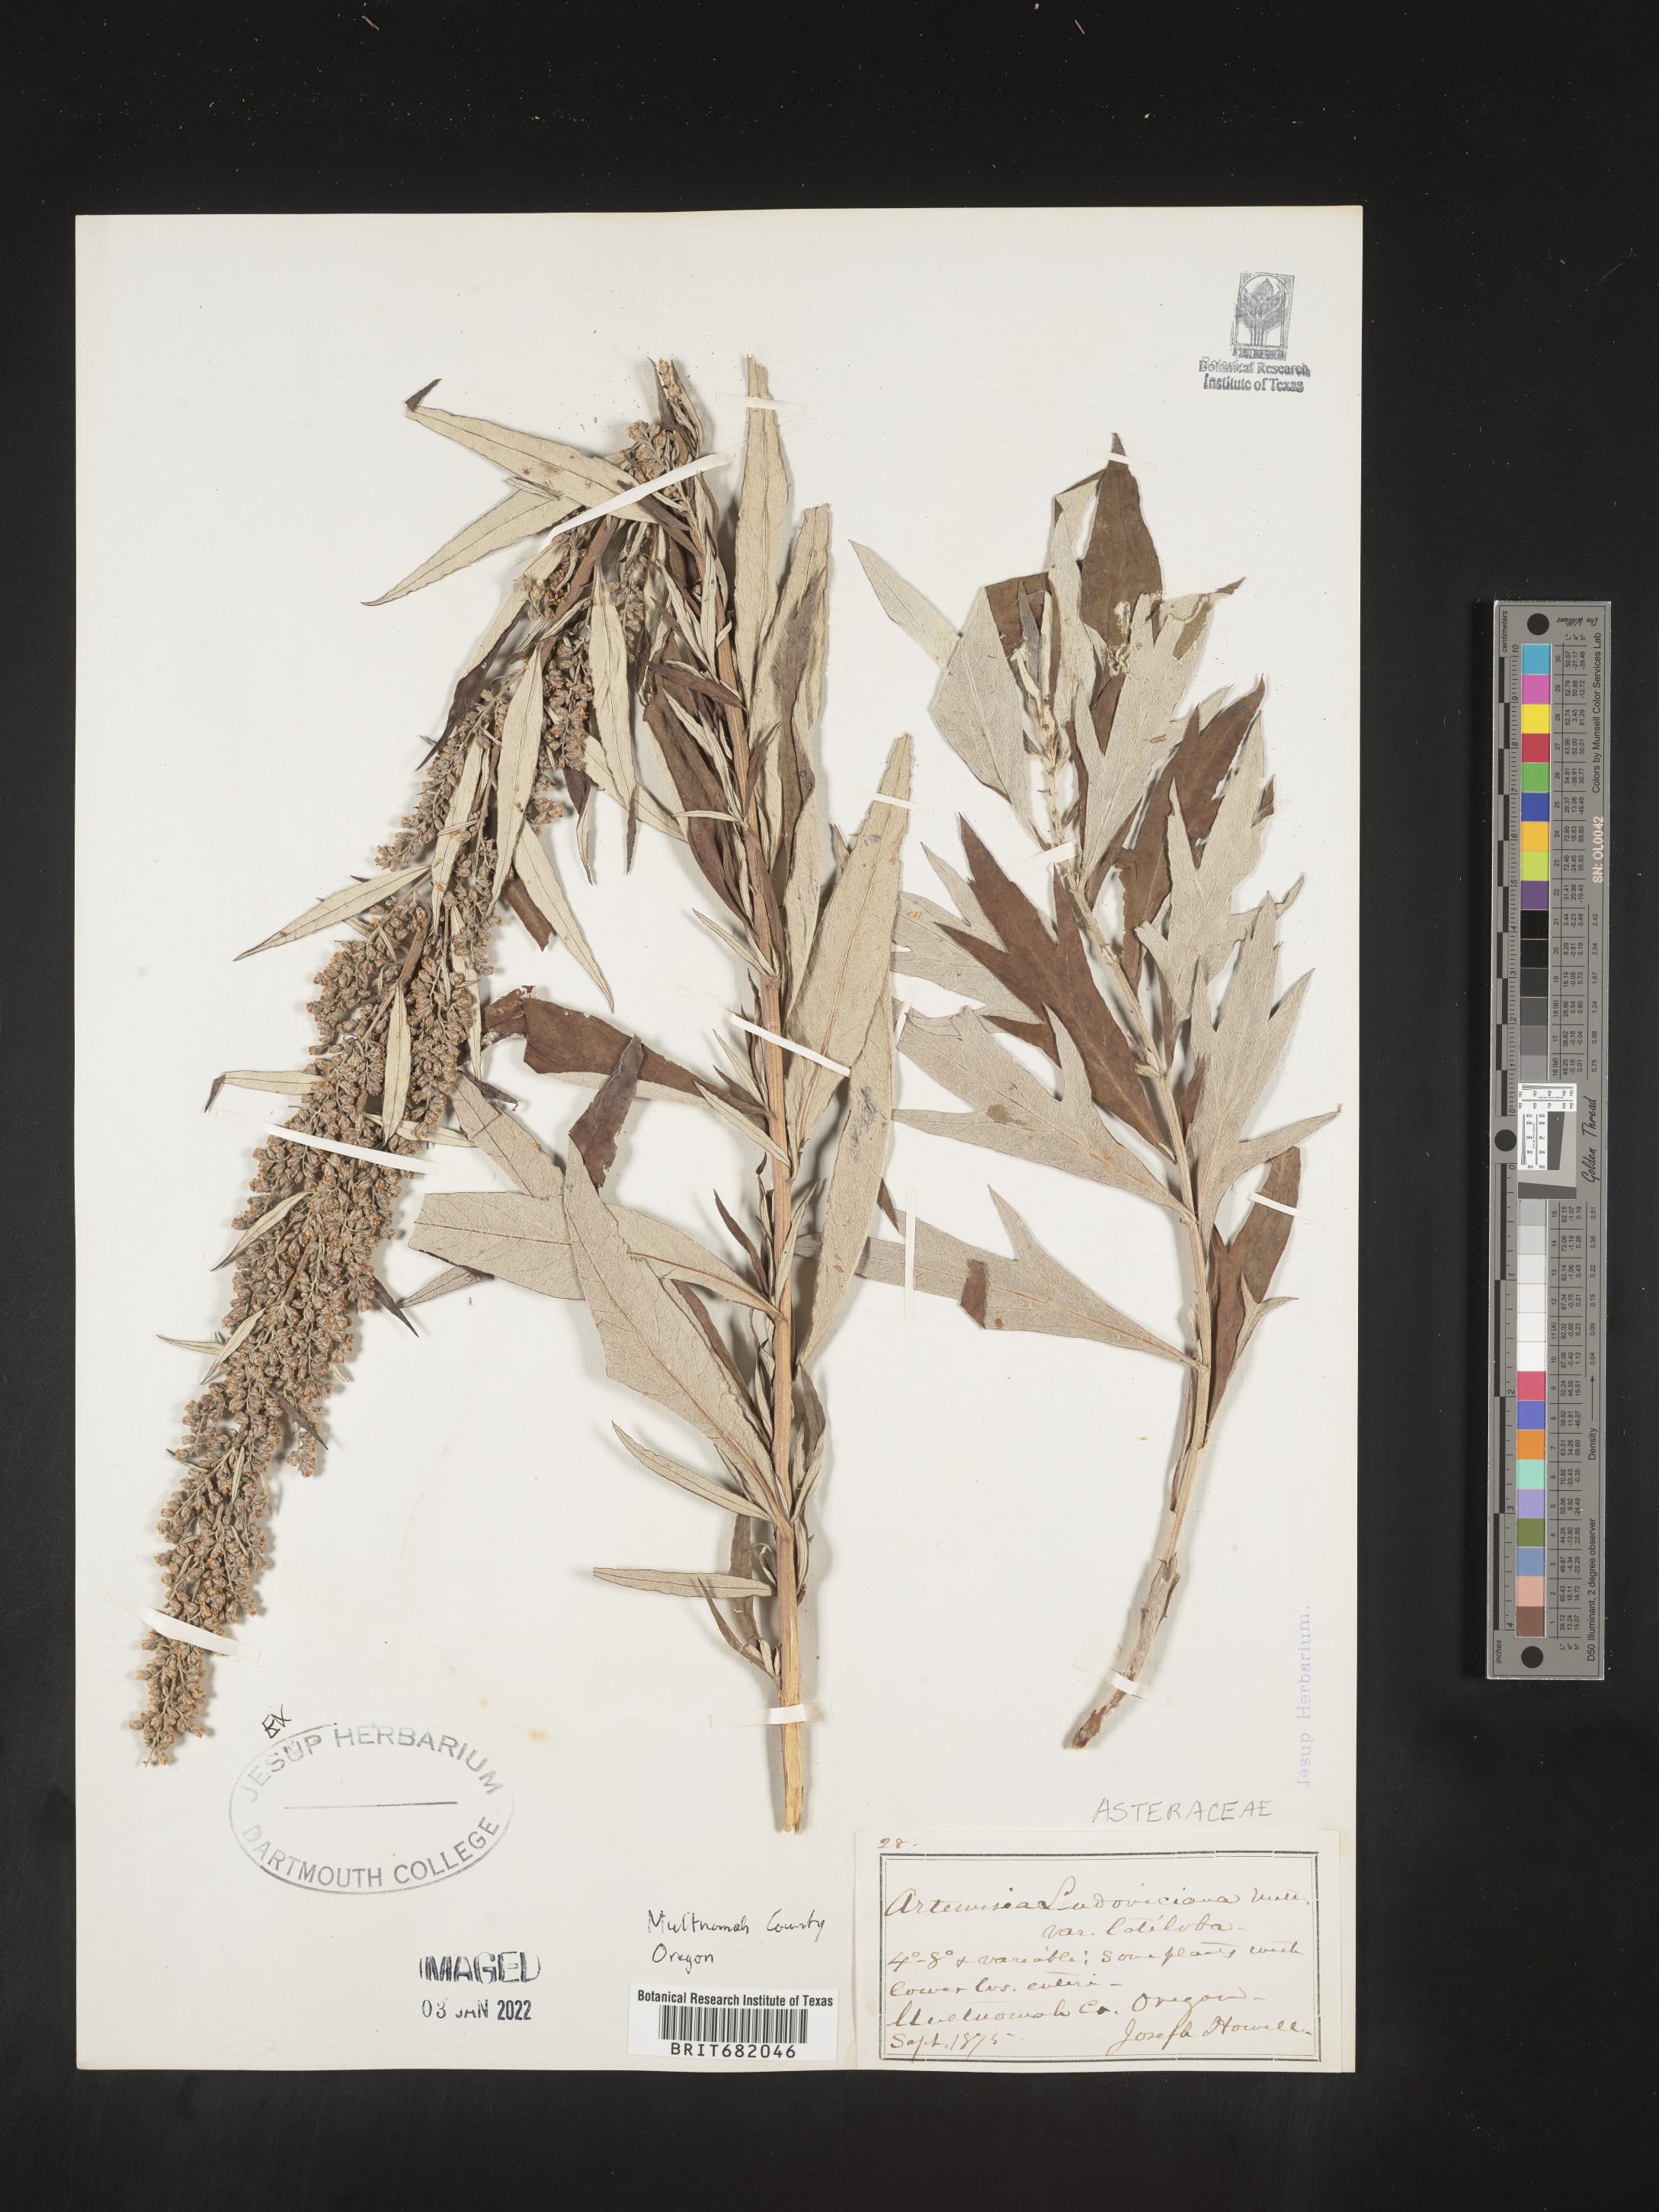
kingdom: Plantae
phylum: Tracheophyta
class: Magnoliopsida
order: Asterales
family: Asteraceae
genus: Artemisia
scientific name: Artemisia ludoviciana
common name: Western mugwort
